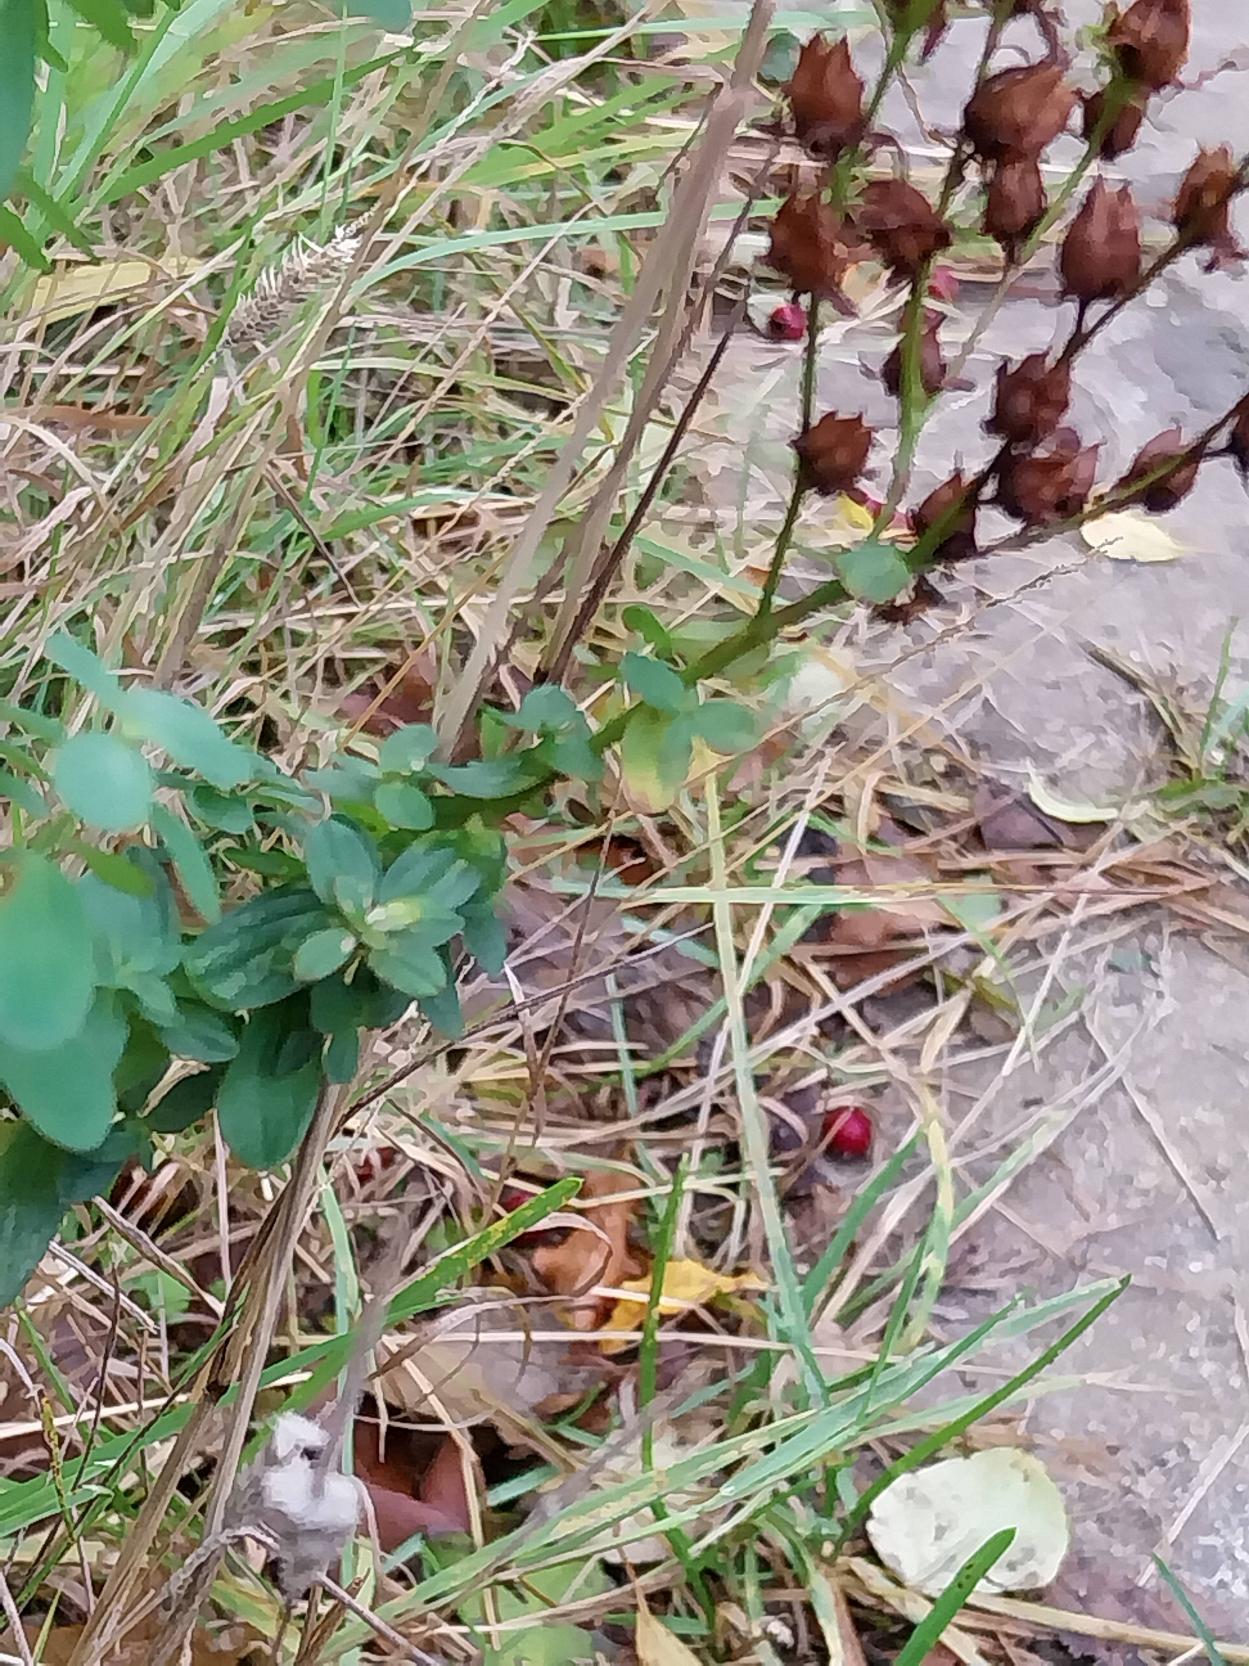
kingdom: Plantae
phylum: Tracheophyta
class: Magnoliopsida
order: Malpighiales
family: Hypericaceae
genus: Hypericum
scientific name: Hypericum perforatum
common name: Prikbladet perikon
